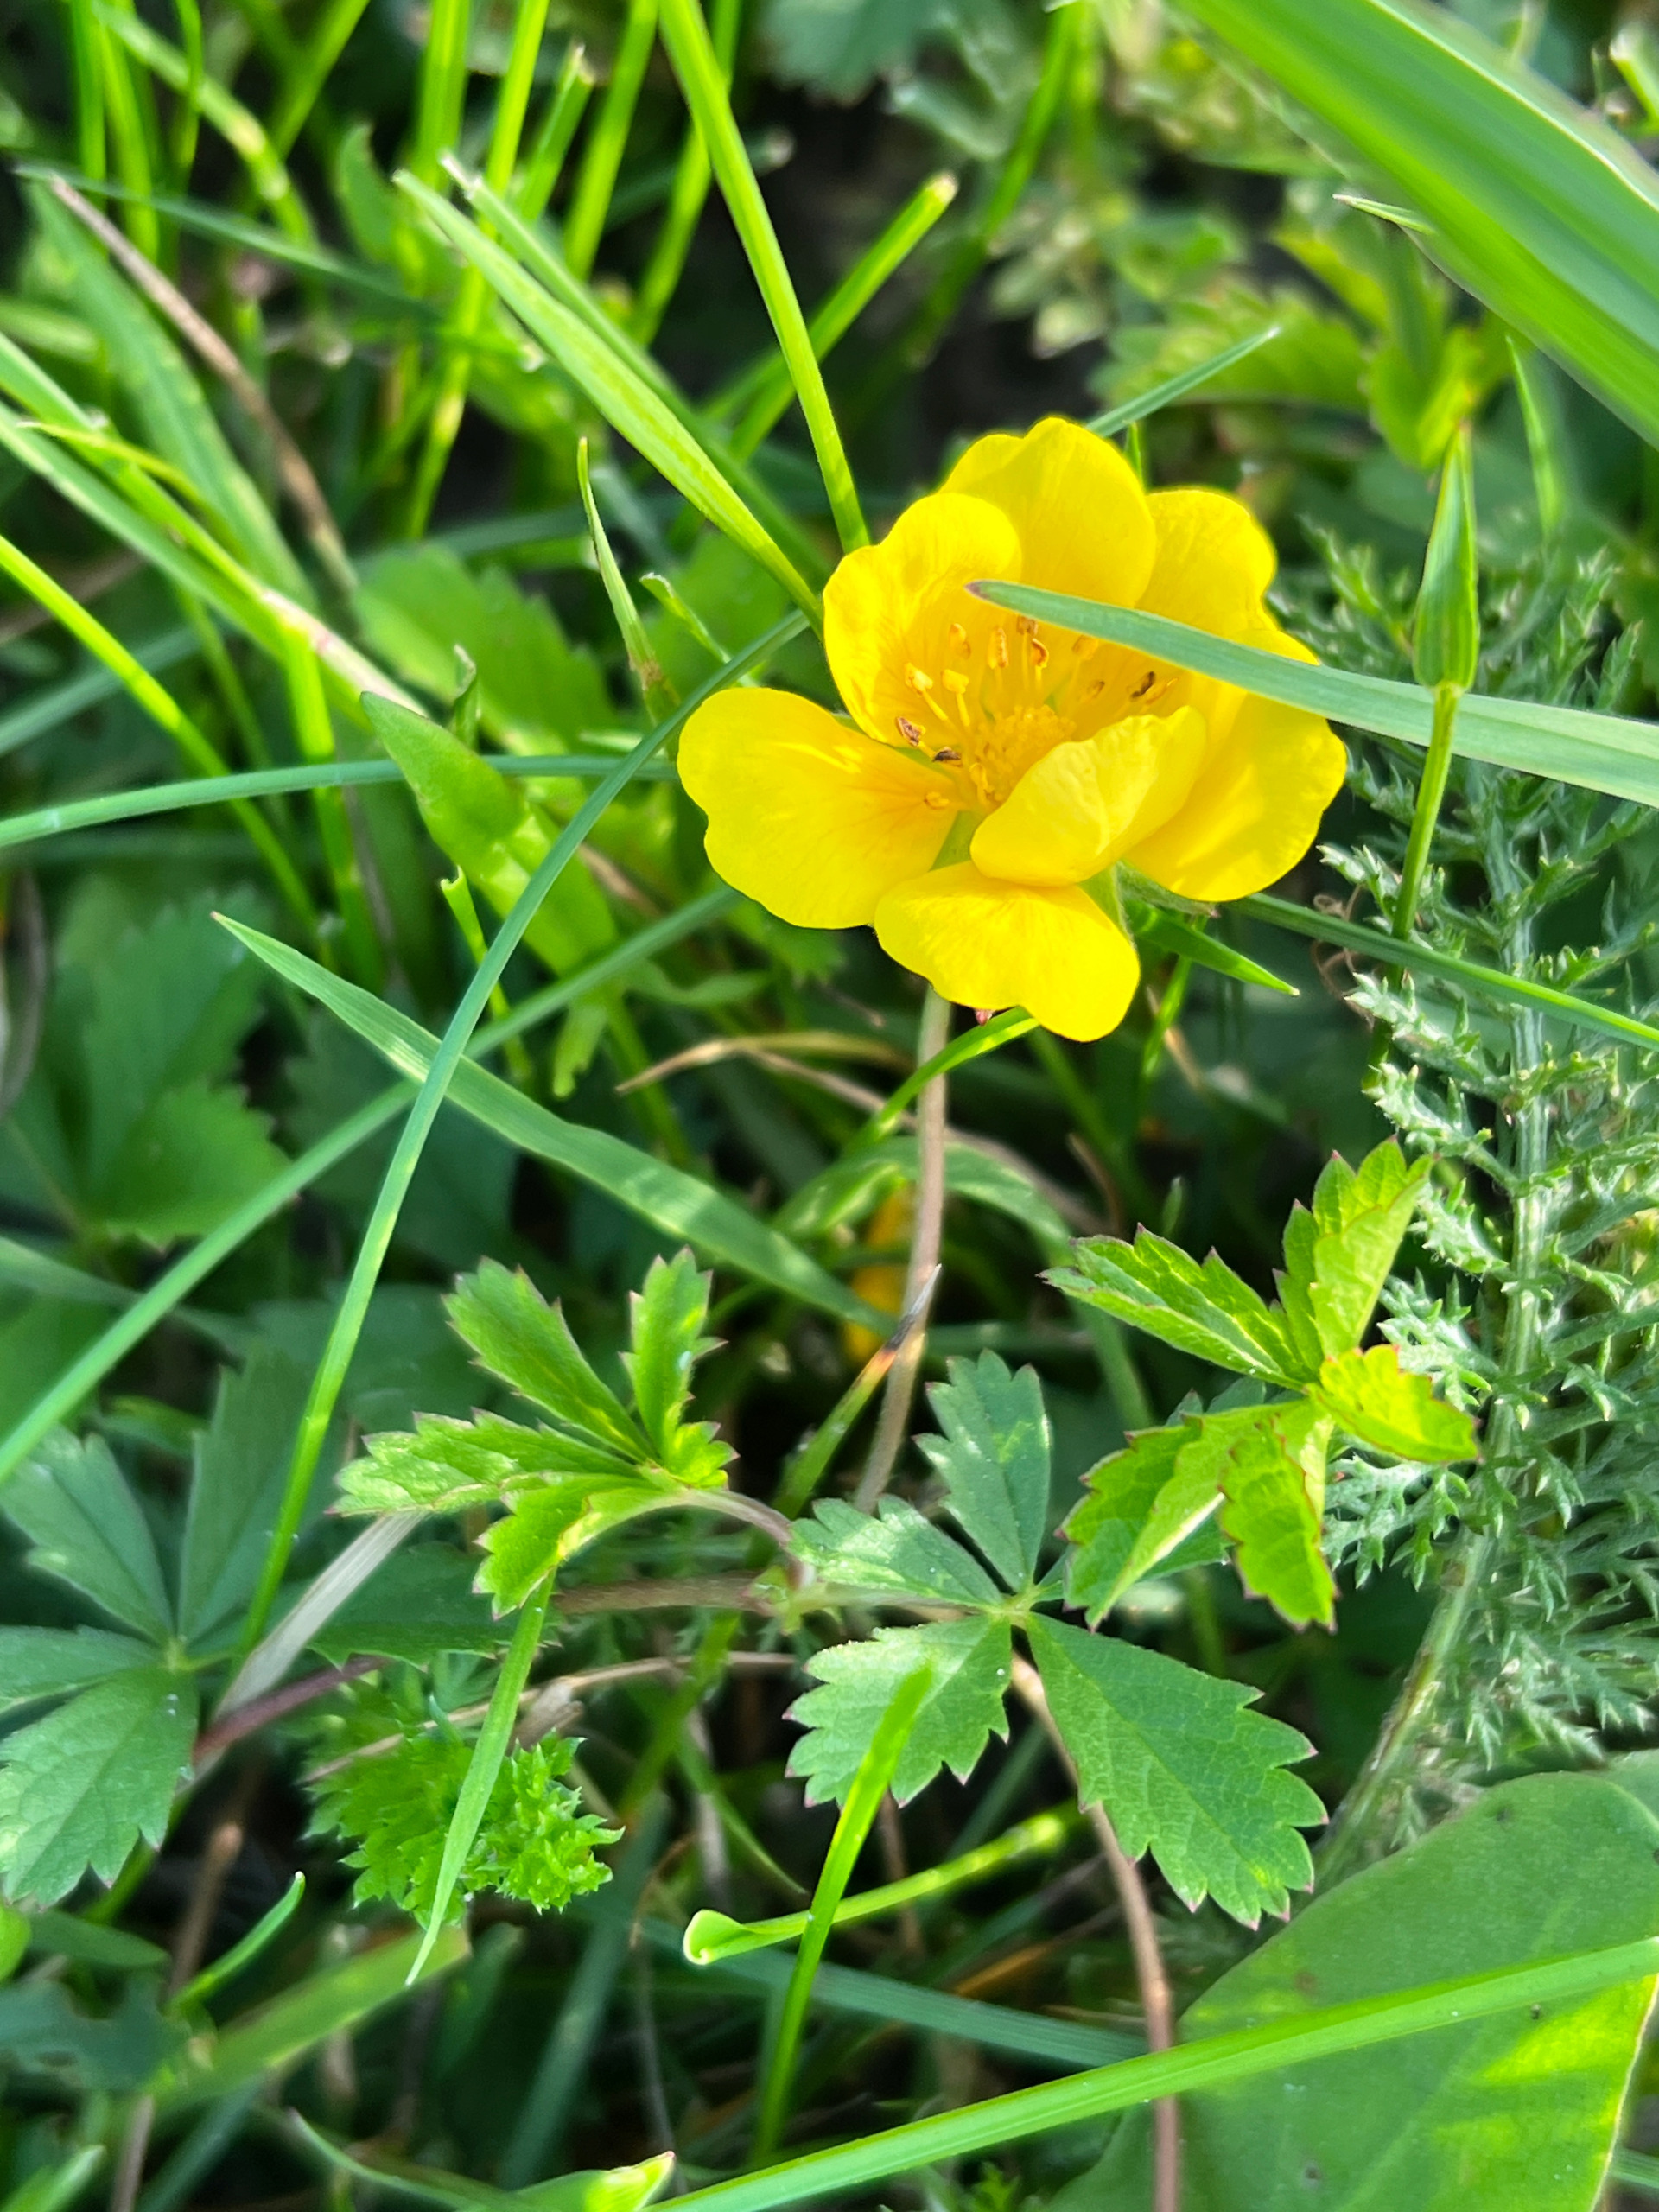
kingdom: Plantae
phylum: Tracheophyta
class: Magnoliopsida
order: Rosales
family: Rosaceae
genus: Potentilla
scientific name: Potentilla reptans
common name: Krybende potentil
